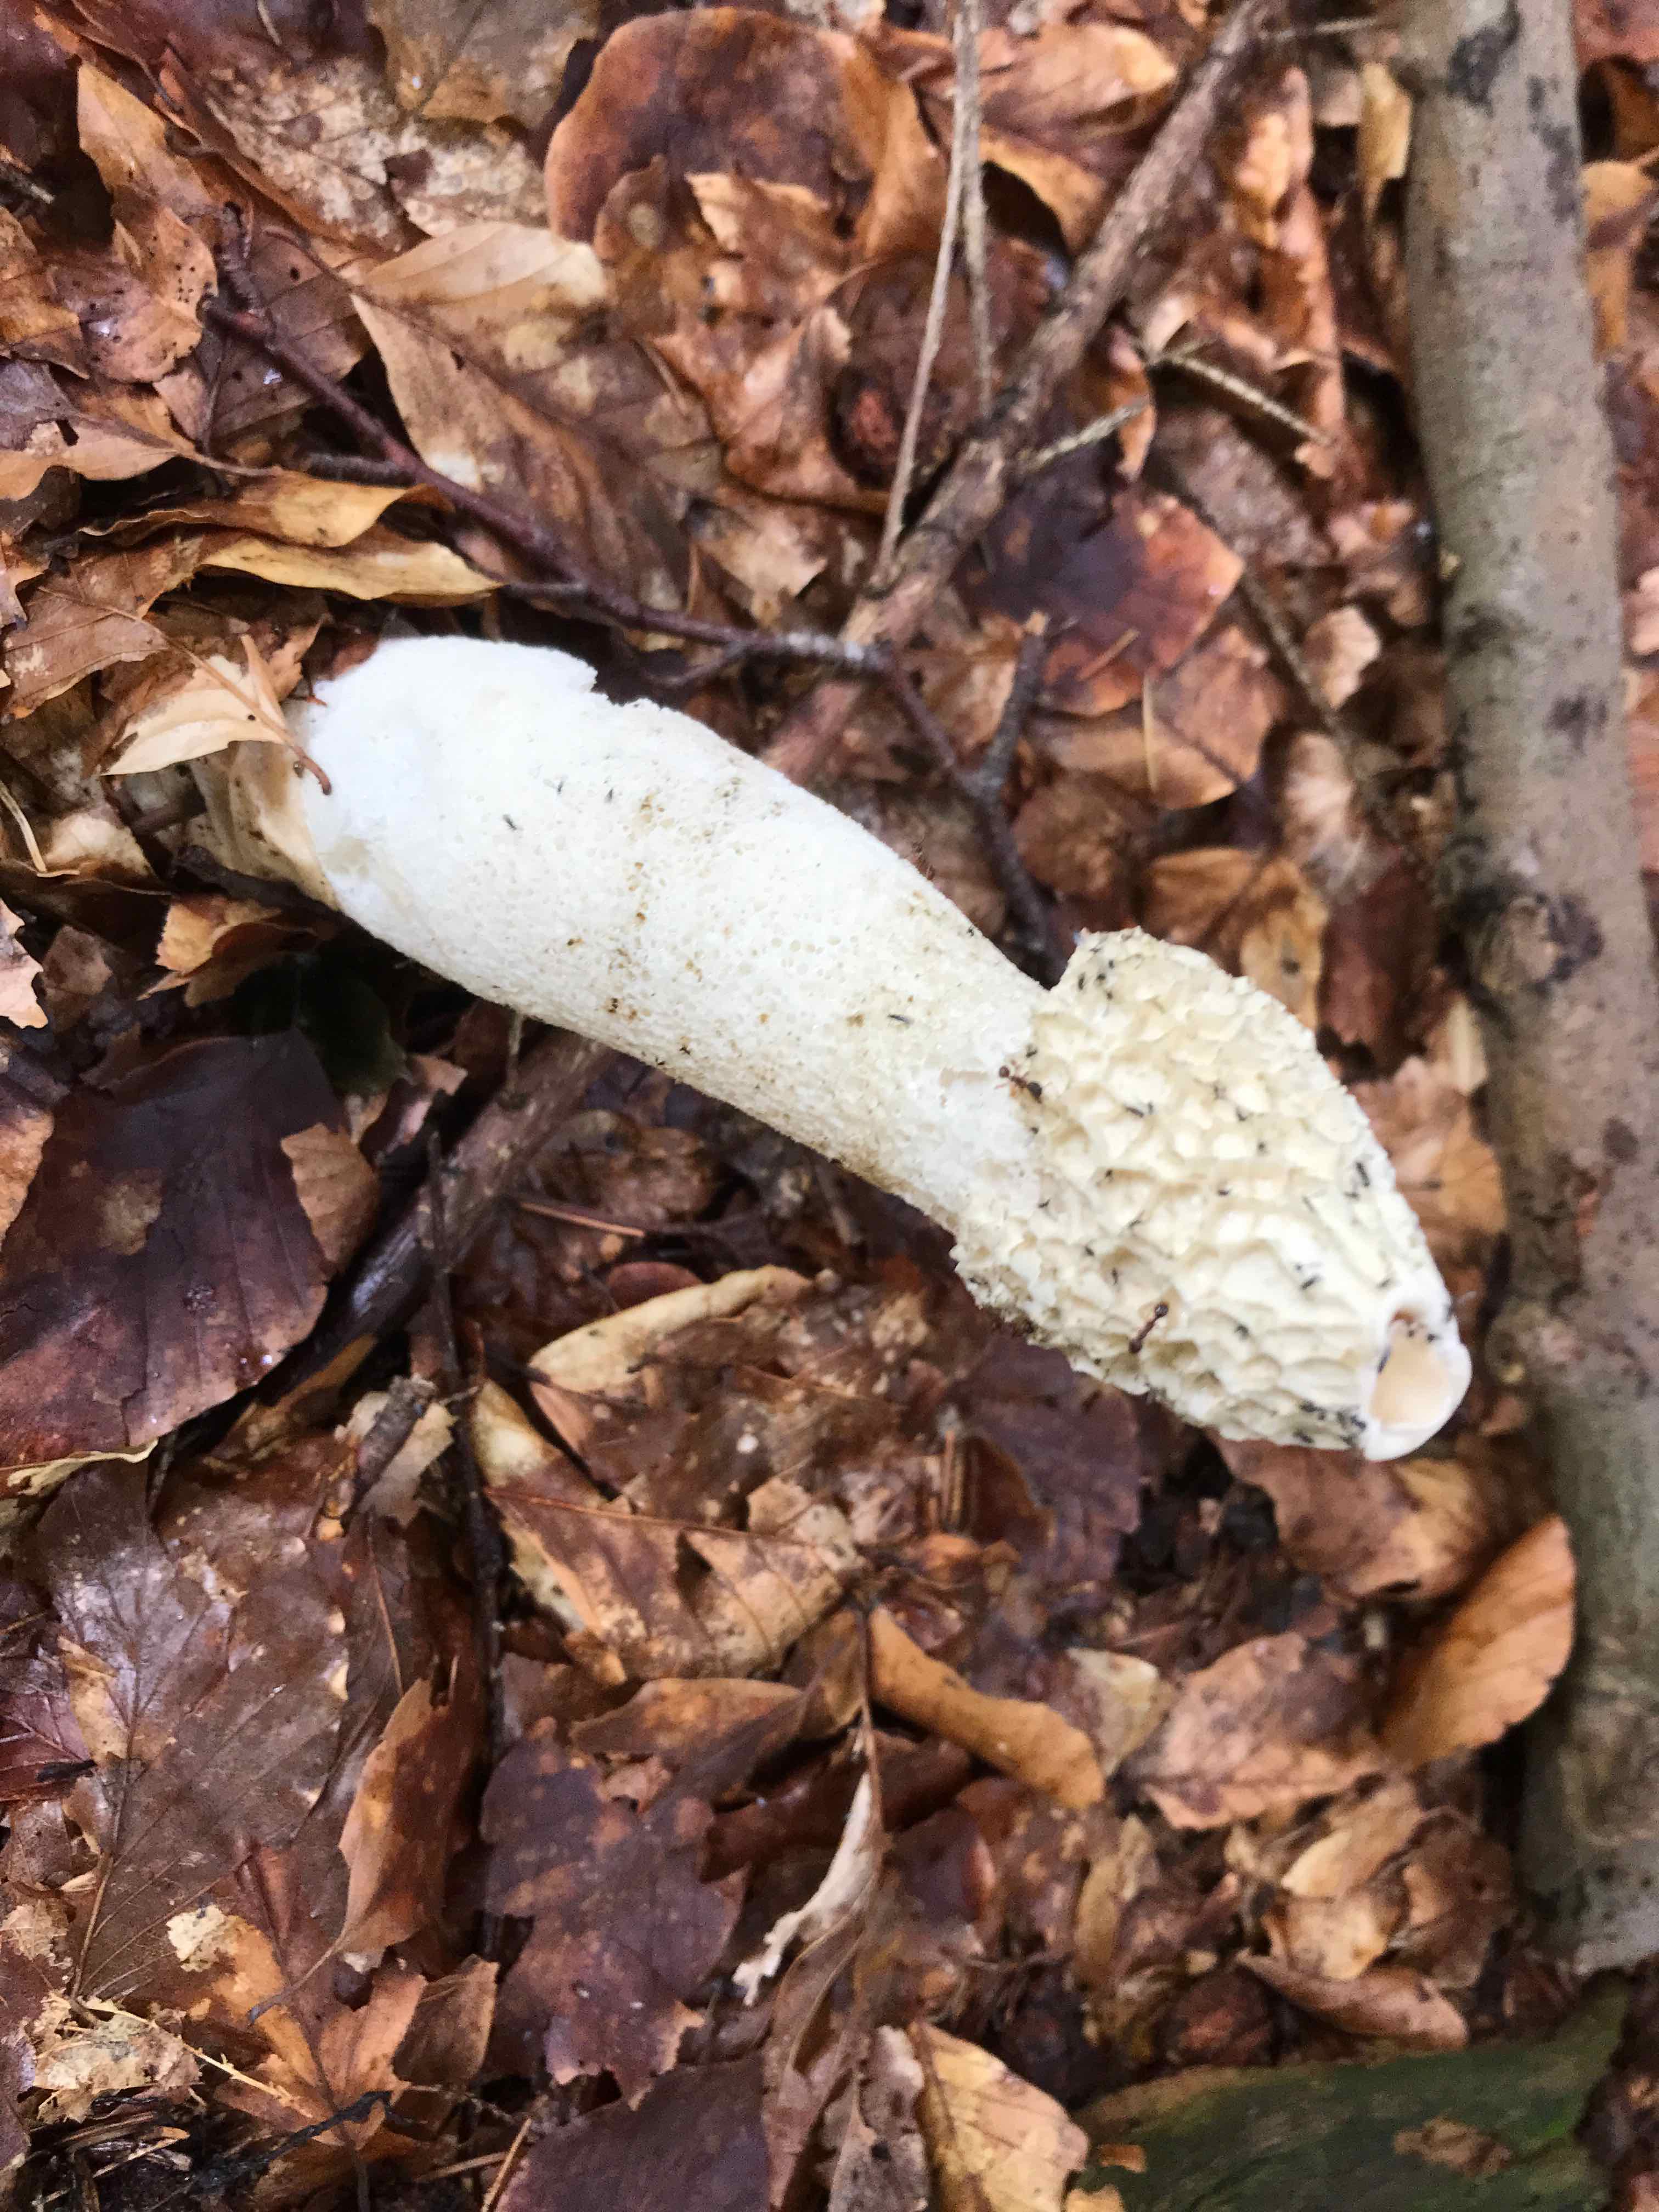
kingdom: Fungi
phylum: Basidiomycota
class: Agaricomycetes
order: Phallales
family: Phallaceae
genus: Phallus
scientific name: Phallus impudicus
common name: almindelig stinksvamp
